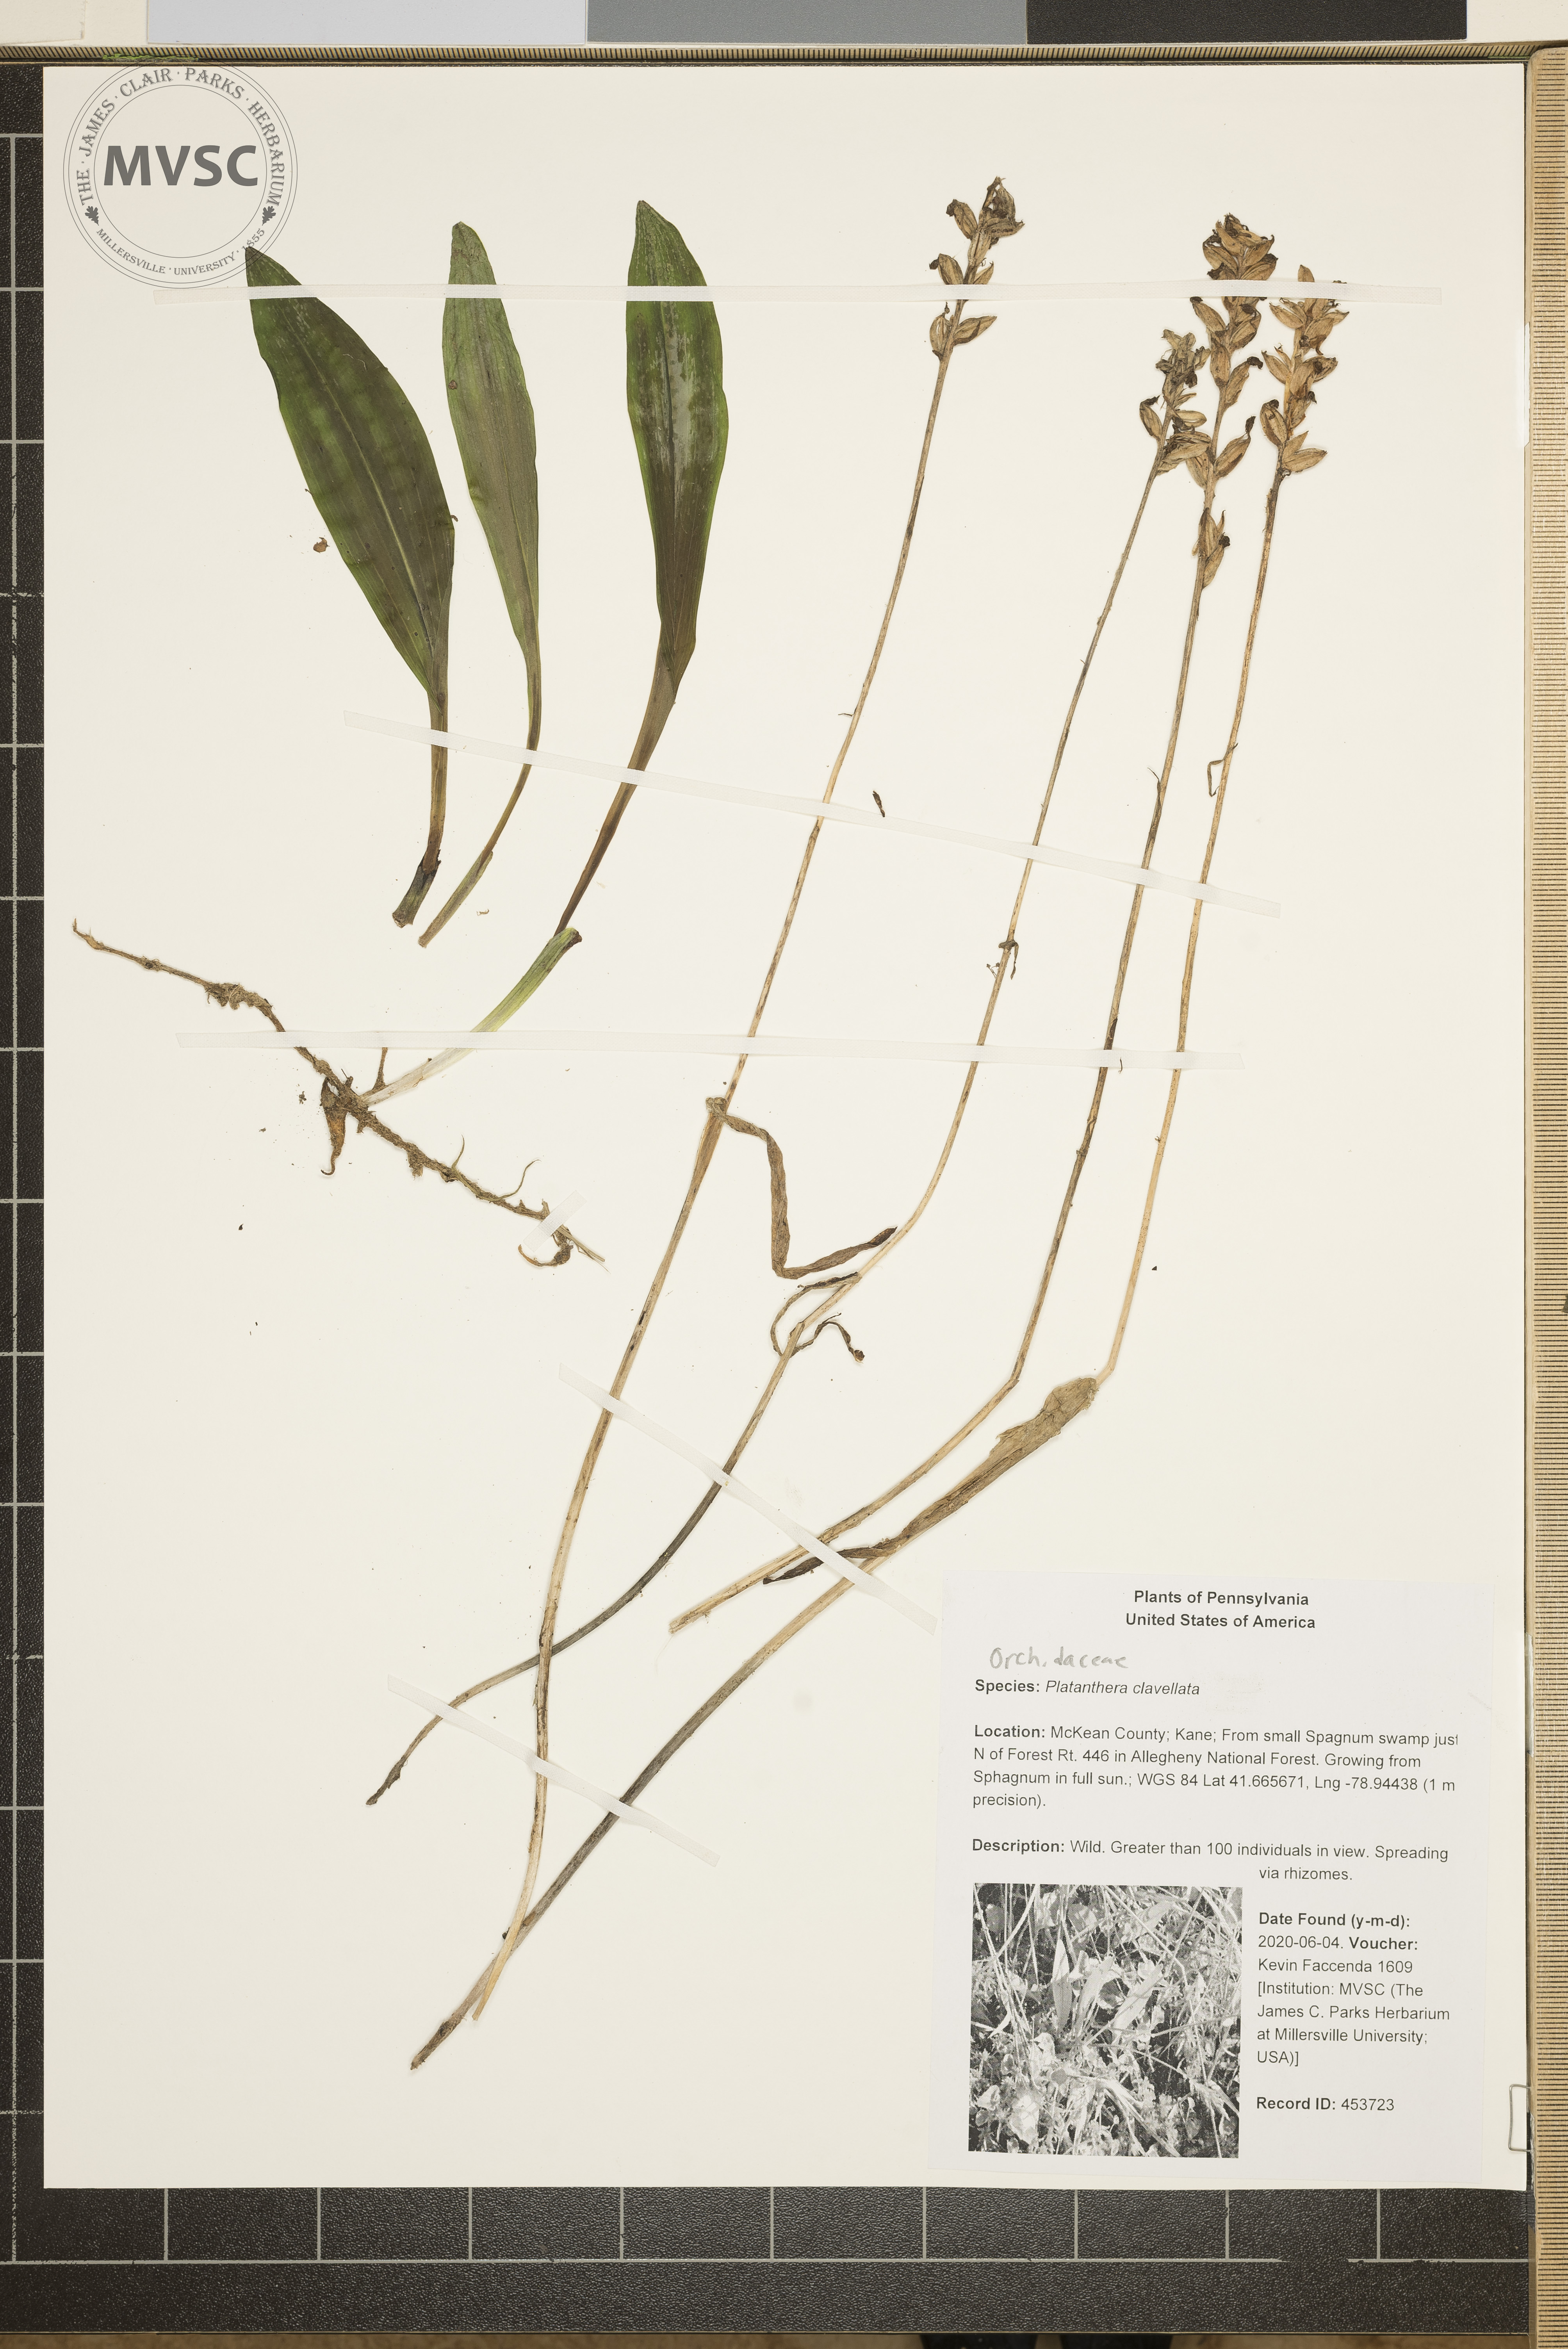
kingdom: Plantae
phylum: Tracheophyta
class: Liliopsida
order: Asparagales
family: Orchidaceae
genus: Platanthera
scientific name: Platanthera clavellata
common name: Club-spur orchid
